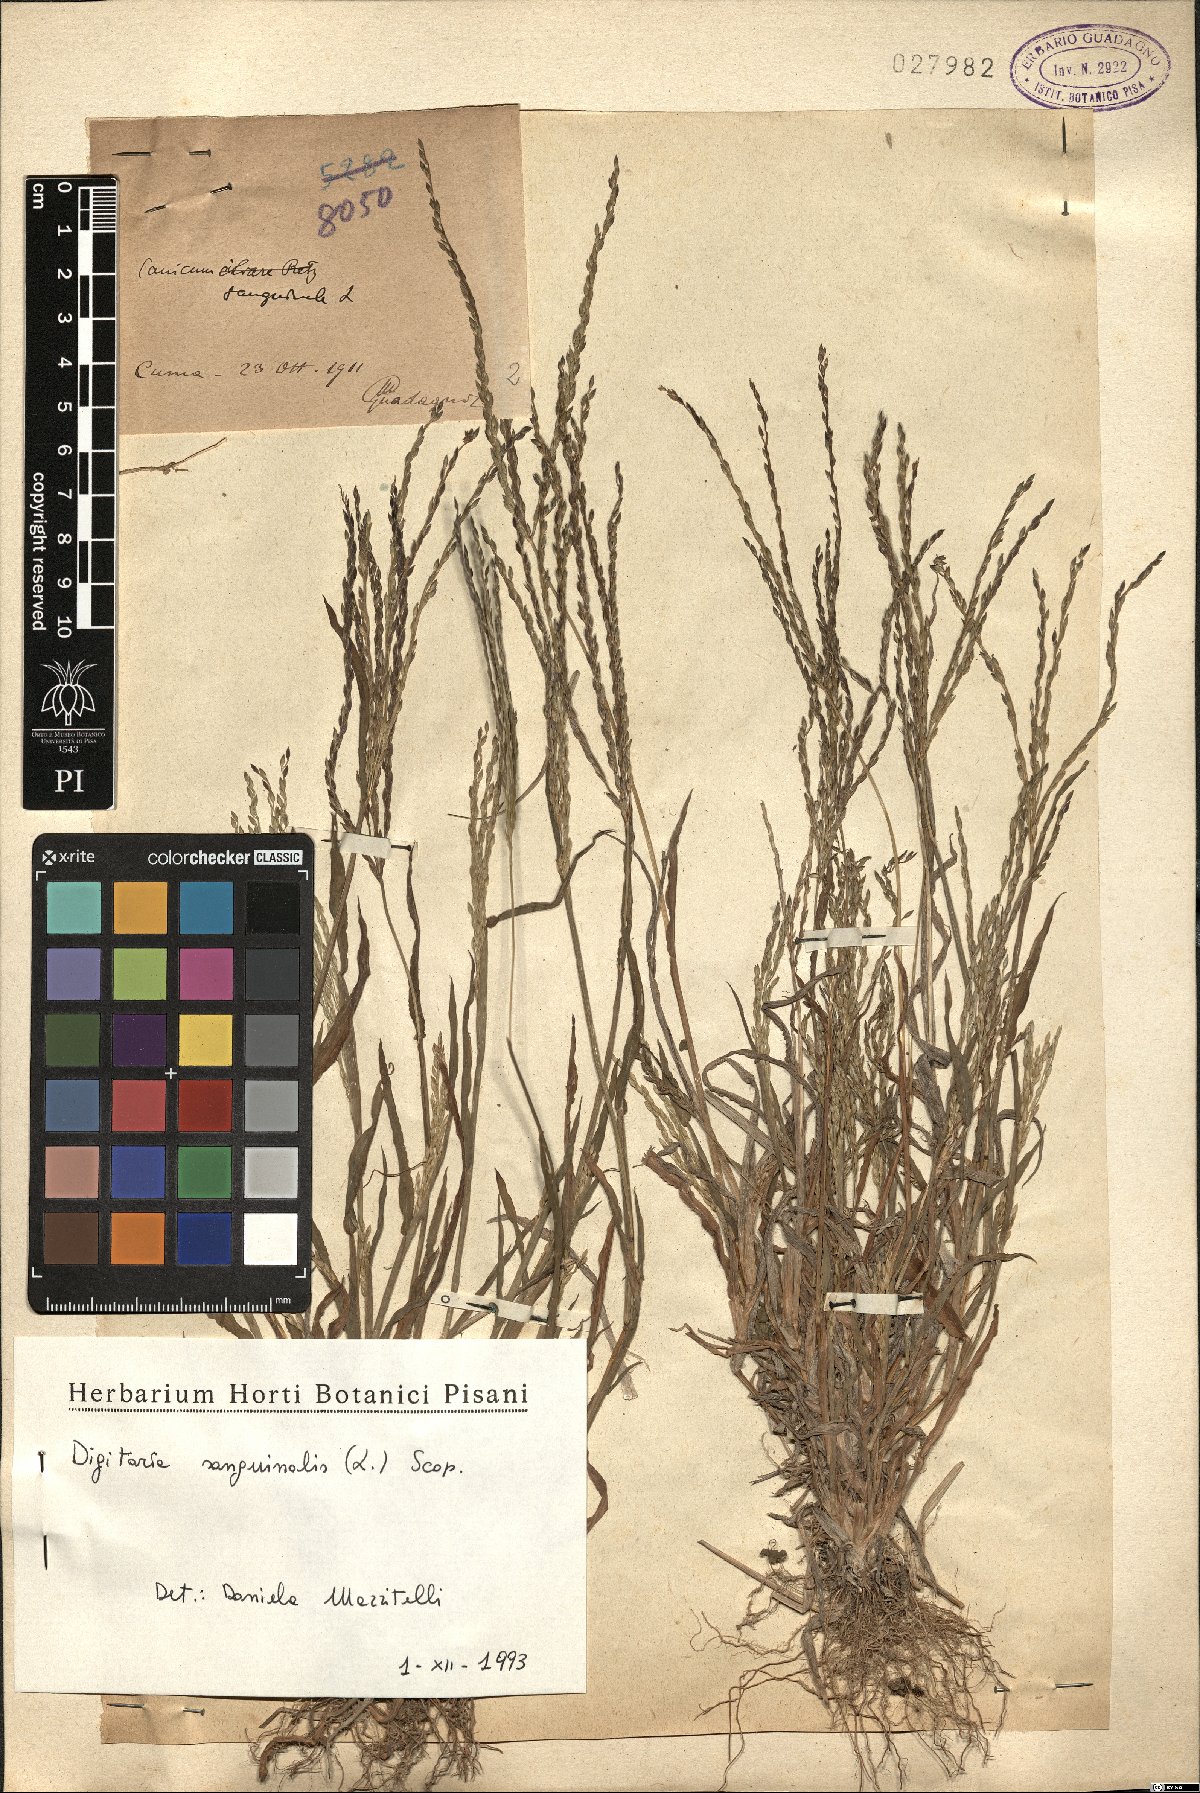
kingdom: Plantae
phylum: Tracheophyta
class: Liliopsida
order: Poales
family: Poaceae
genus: Digitaria
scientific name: Digitaria sanguinalis
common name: Hairy crabgrass
